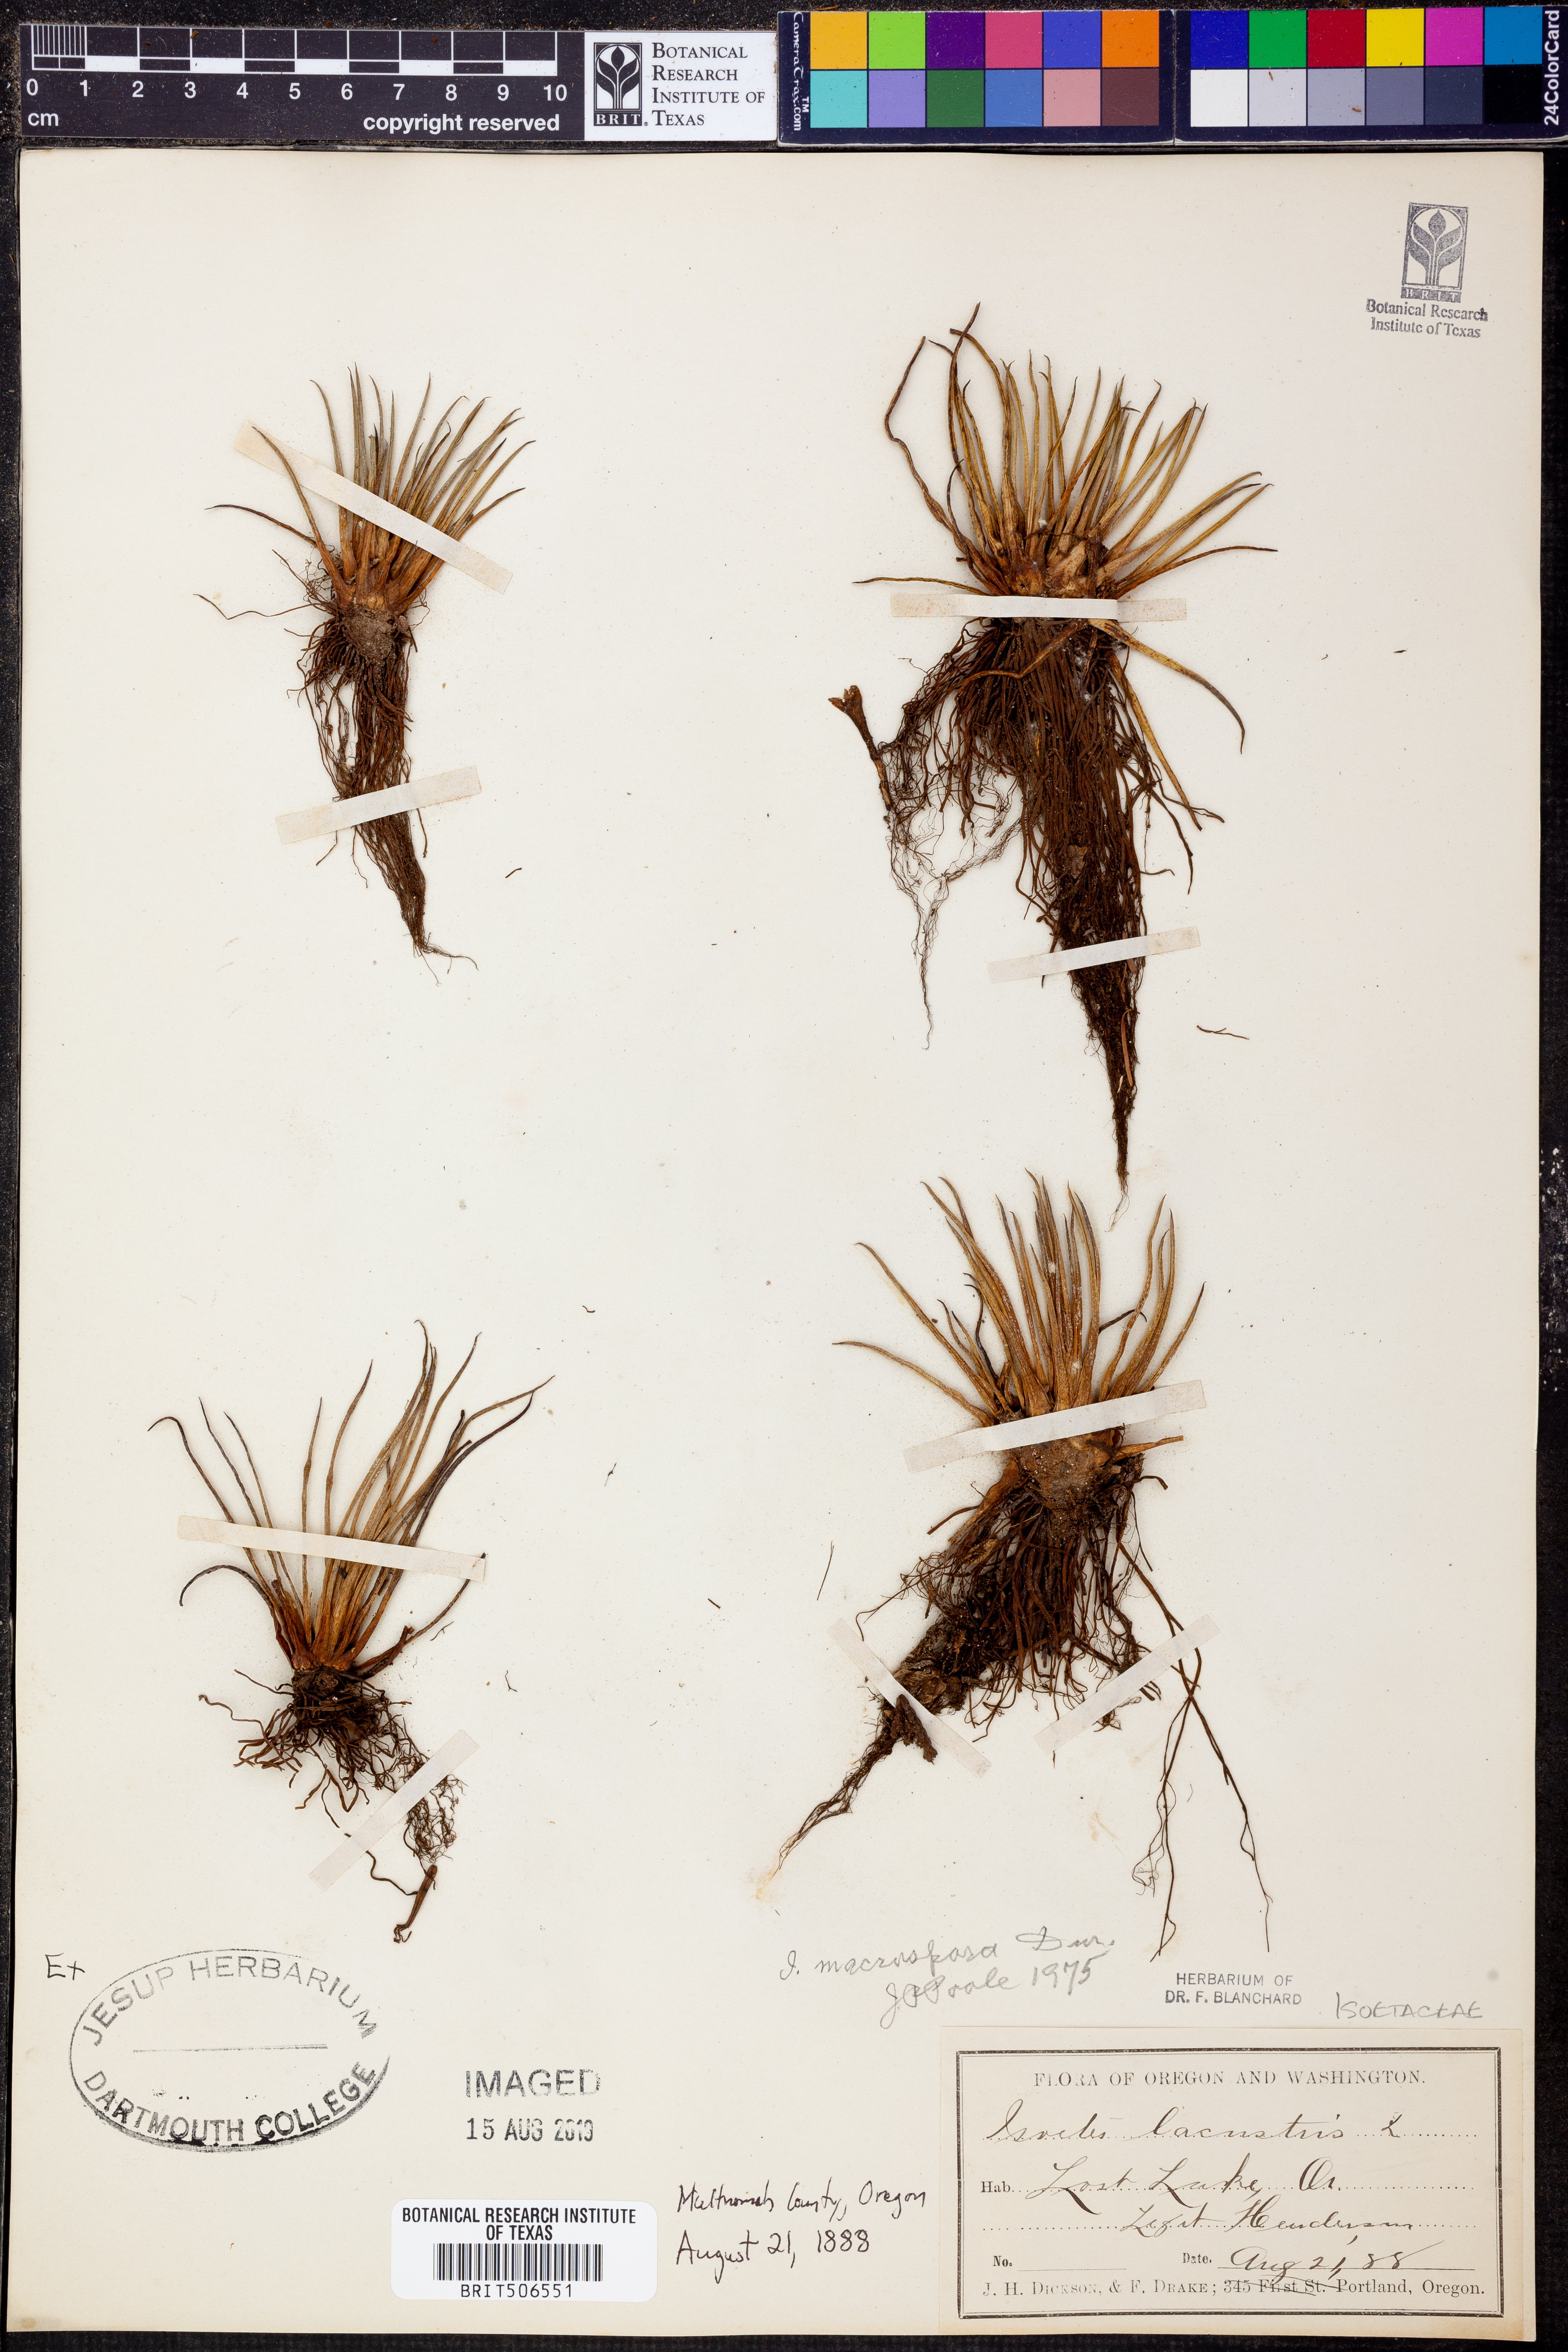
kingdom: Plantae
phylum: Tracheophyta
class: Lycopodiopsida
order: Isoetales
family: Isoetaceae
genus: Isoetes
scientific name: Isoetes lacustris
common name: Common quillwort
